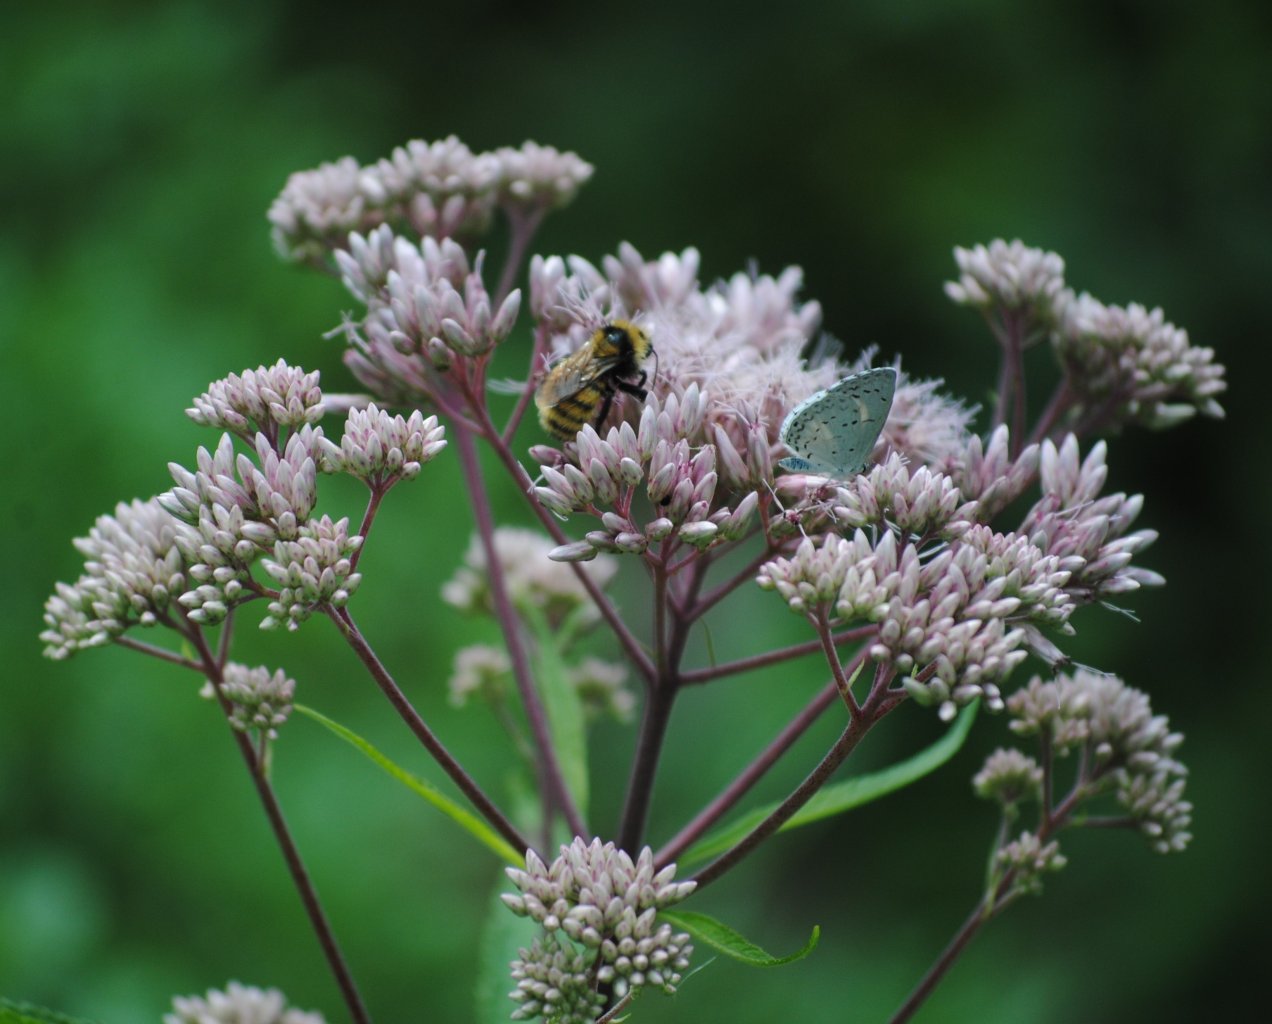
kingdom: Animalia
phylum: Arthropoda
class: Insecta
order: Lepidoptera
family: Lycaenidae
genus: Celastrina
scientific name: Celastrina
